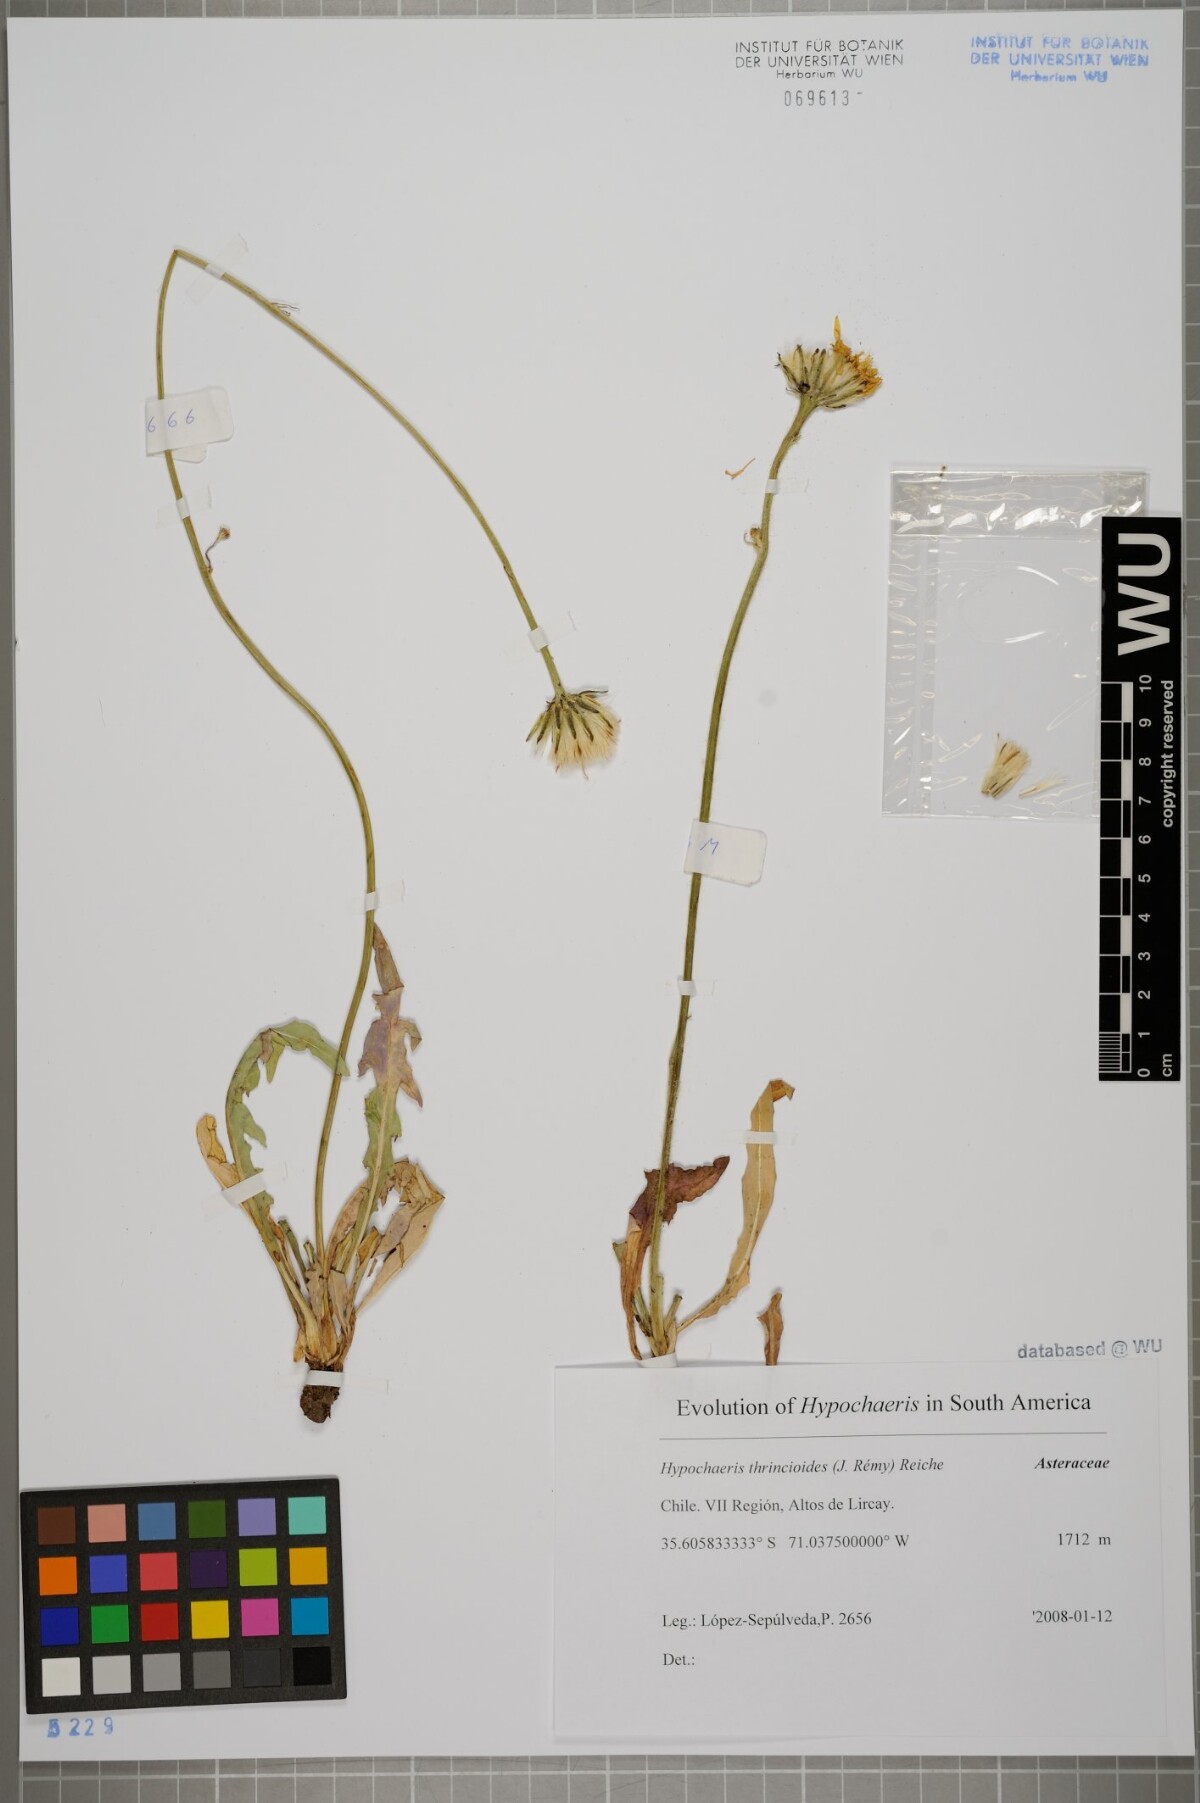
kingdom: Plantae
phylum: Tracheophyta
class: Magnoliopsida
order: Asterales
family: Asteraceae
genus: Hypochaeris
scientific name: Hypochaeris apargioides
